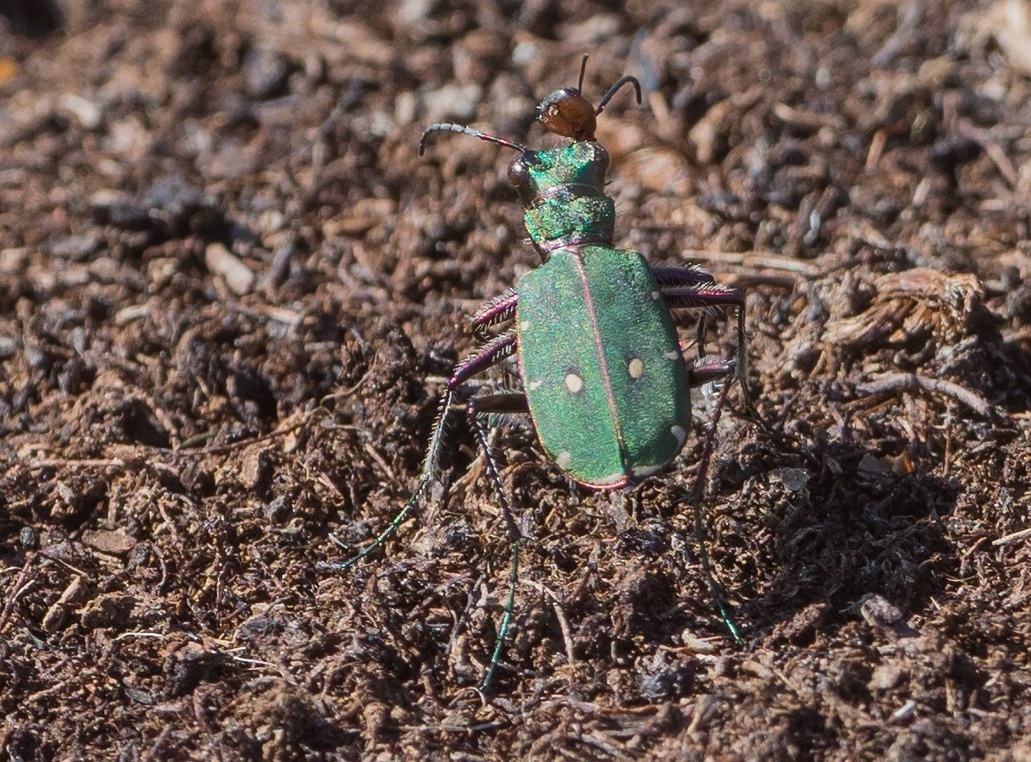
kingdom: Animalia
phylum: Arthropoda
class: Insecta
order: Coleoptera
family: Carabidae
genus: Cicindela
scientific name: Cicindela campestris
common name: Common tiger beetle
